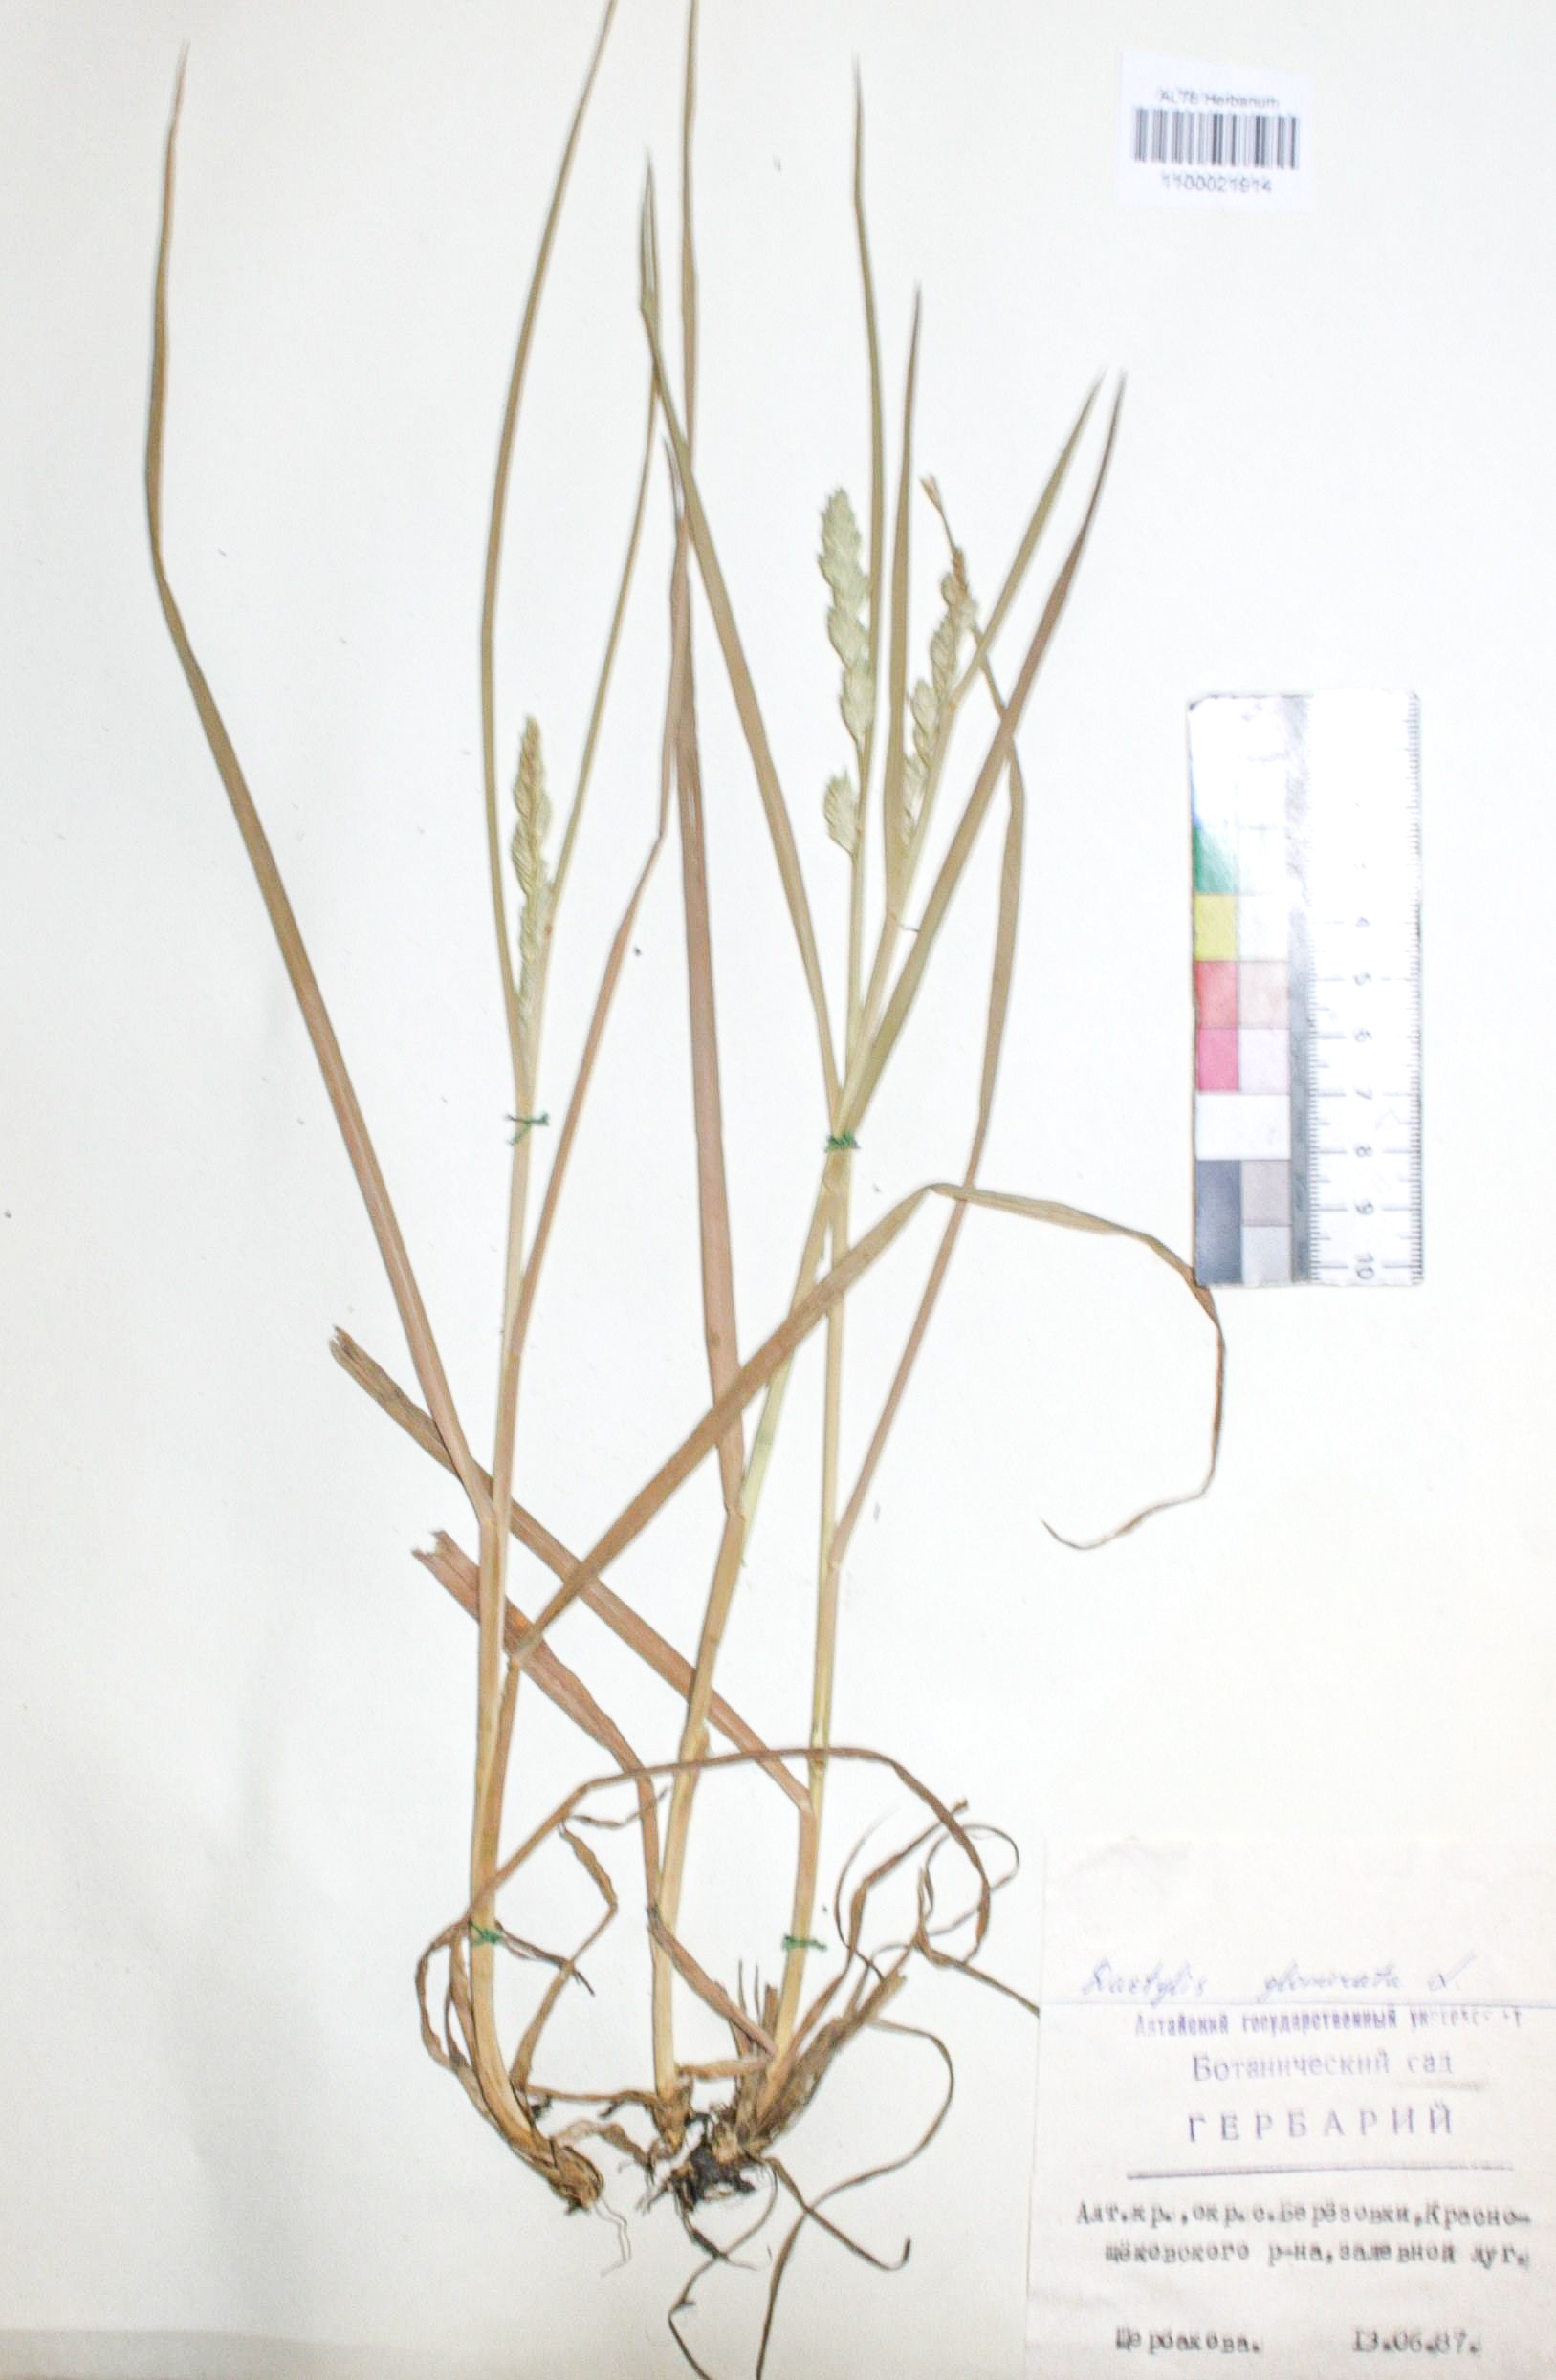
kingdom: Plantae
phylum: Tracheophyta
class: Liliopsida
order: Poales
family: Poaceae
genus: Dactylis
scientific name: Dactylis glomerata
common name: Orchardgrass
